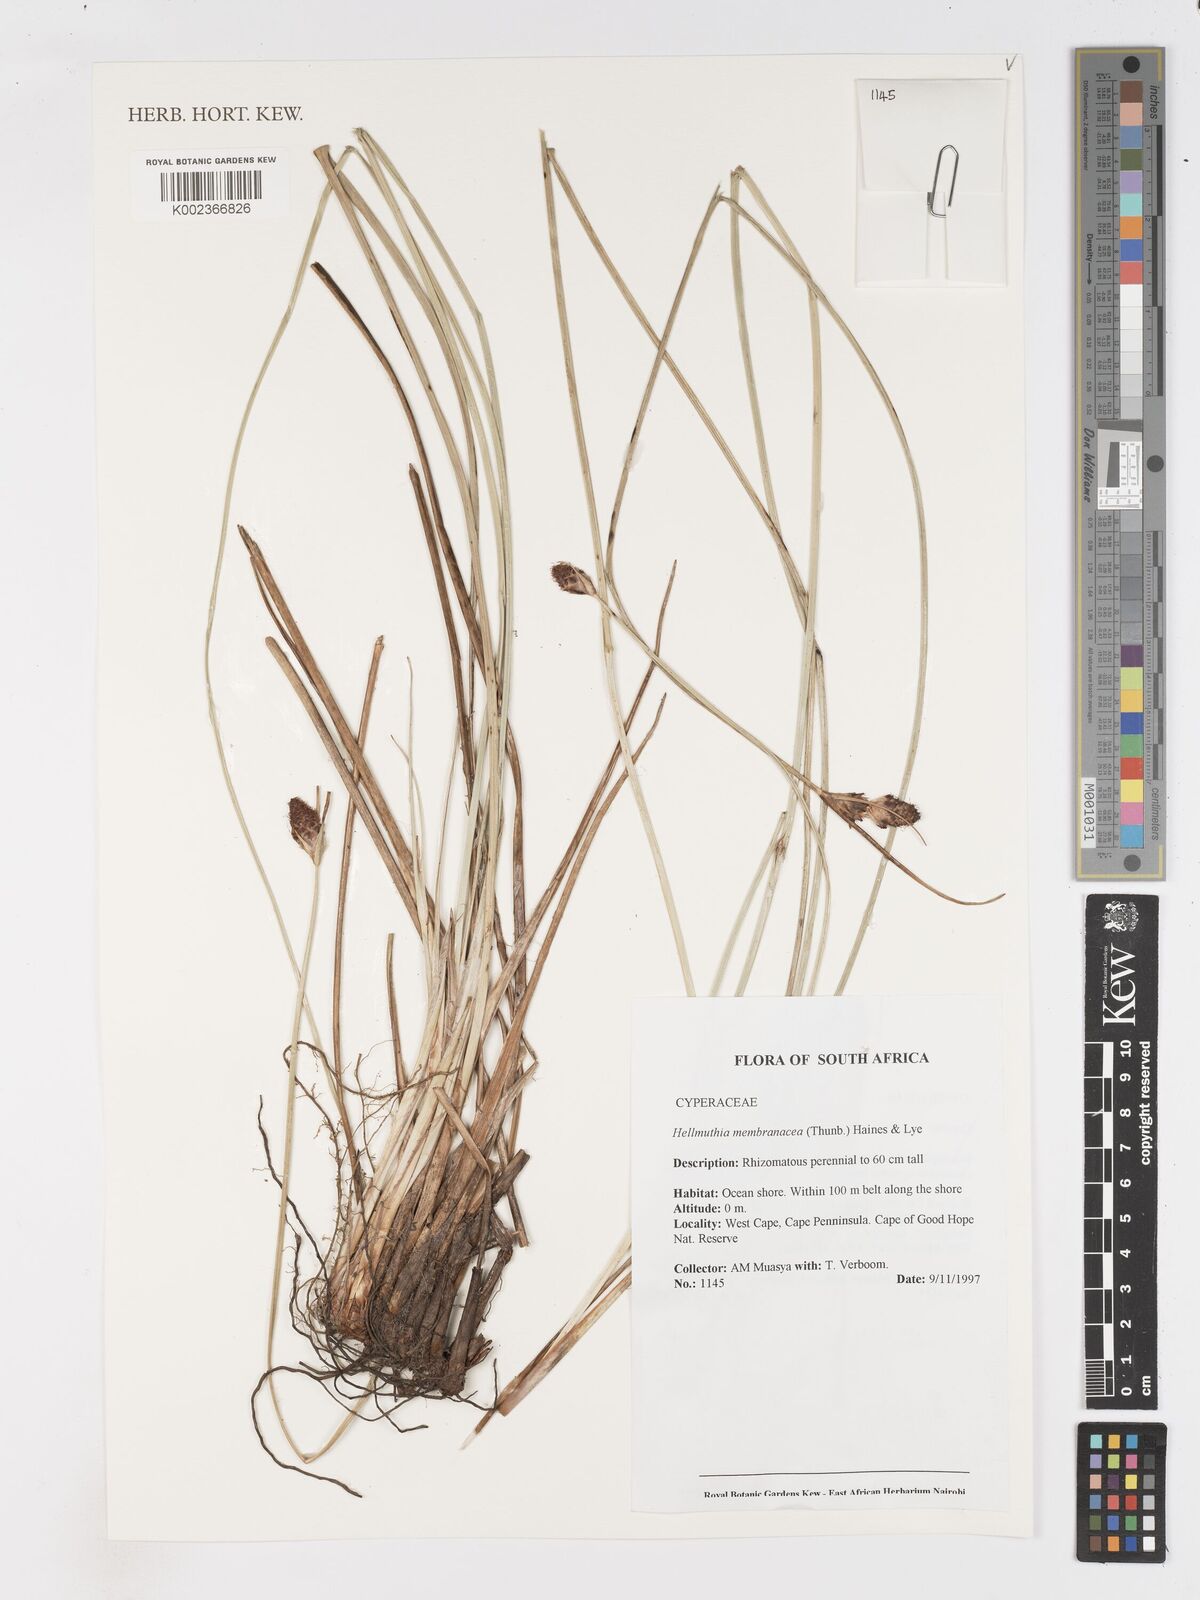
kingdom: Plantae
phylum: Tracheophyta
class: Liliopsida
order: Poales
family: Cyperaceae
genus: Hellmuthia
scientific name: Hellmuthia membranacea
